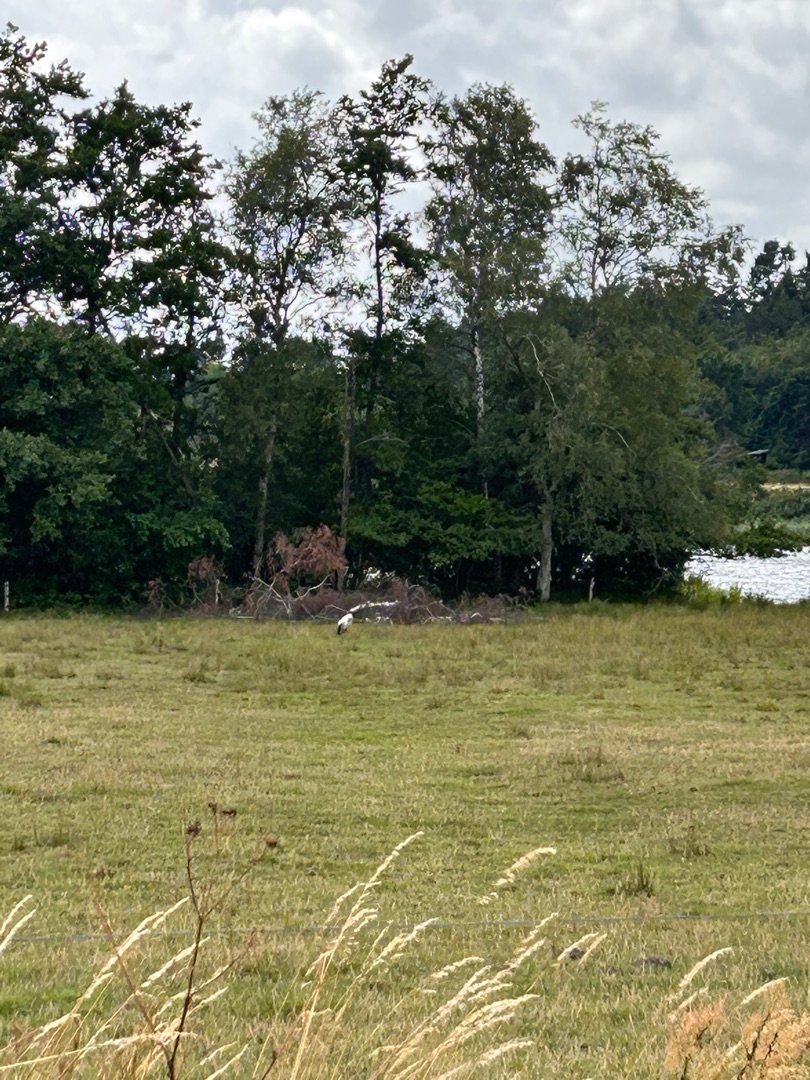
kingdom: Animalia
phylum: Chordata
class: Aves
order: Ciconiiformes
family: Ciconiidae
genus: Ciconia
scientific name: Ciconia ciconia
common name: Hvid stork
